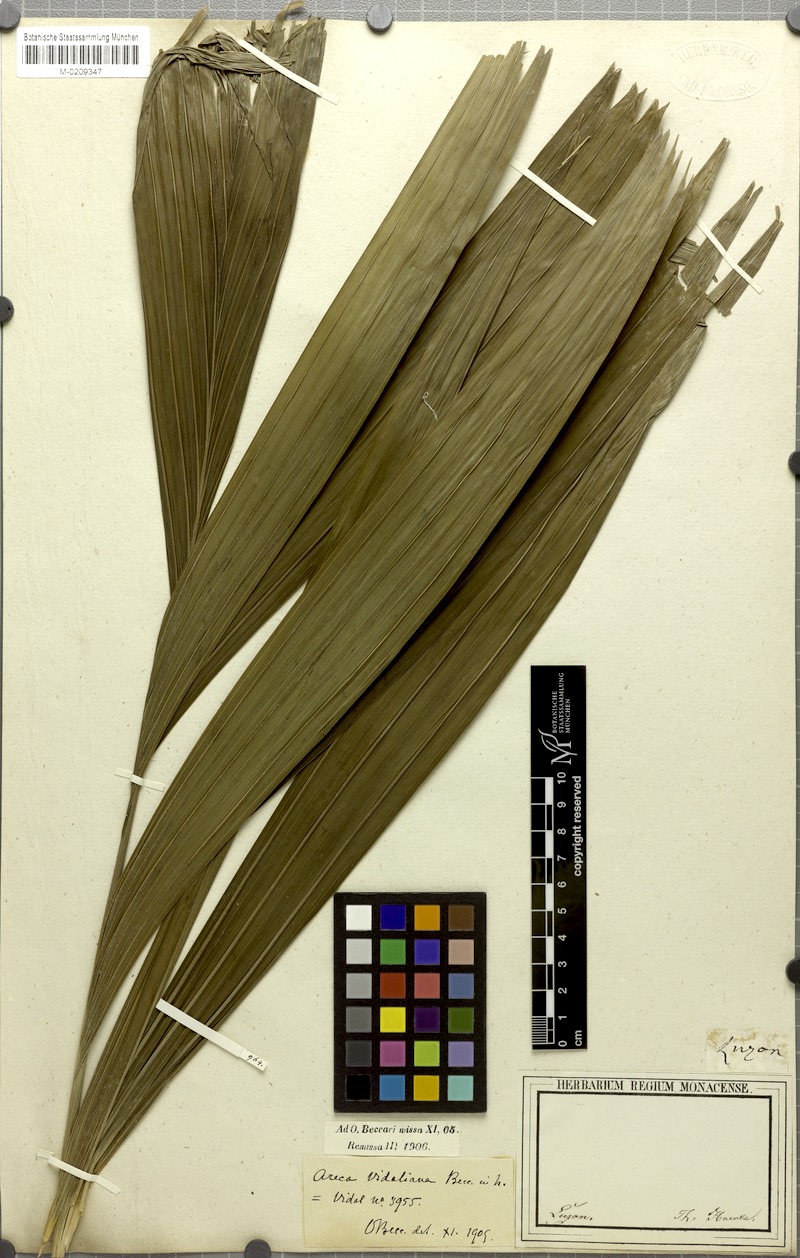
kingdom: Plantae
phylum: Tracheophyta
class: Liliopsida
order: Arecales
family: Arecaceae
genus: Areca
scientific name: Areca vidaliana
